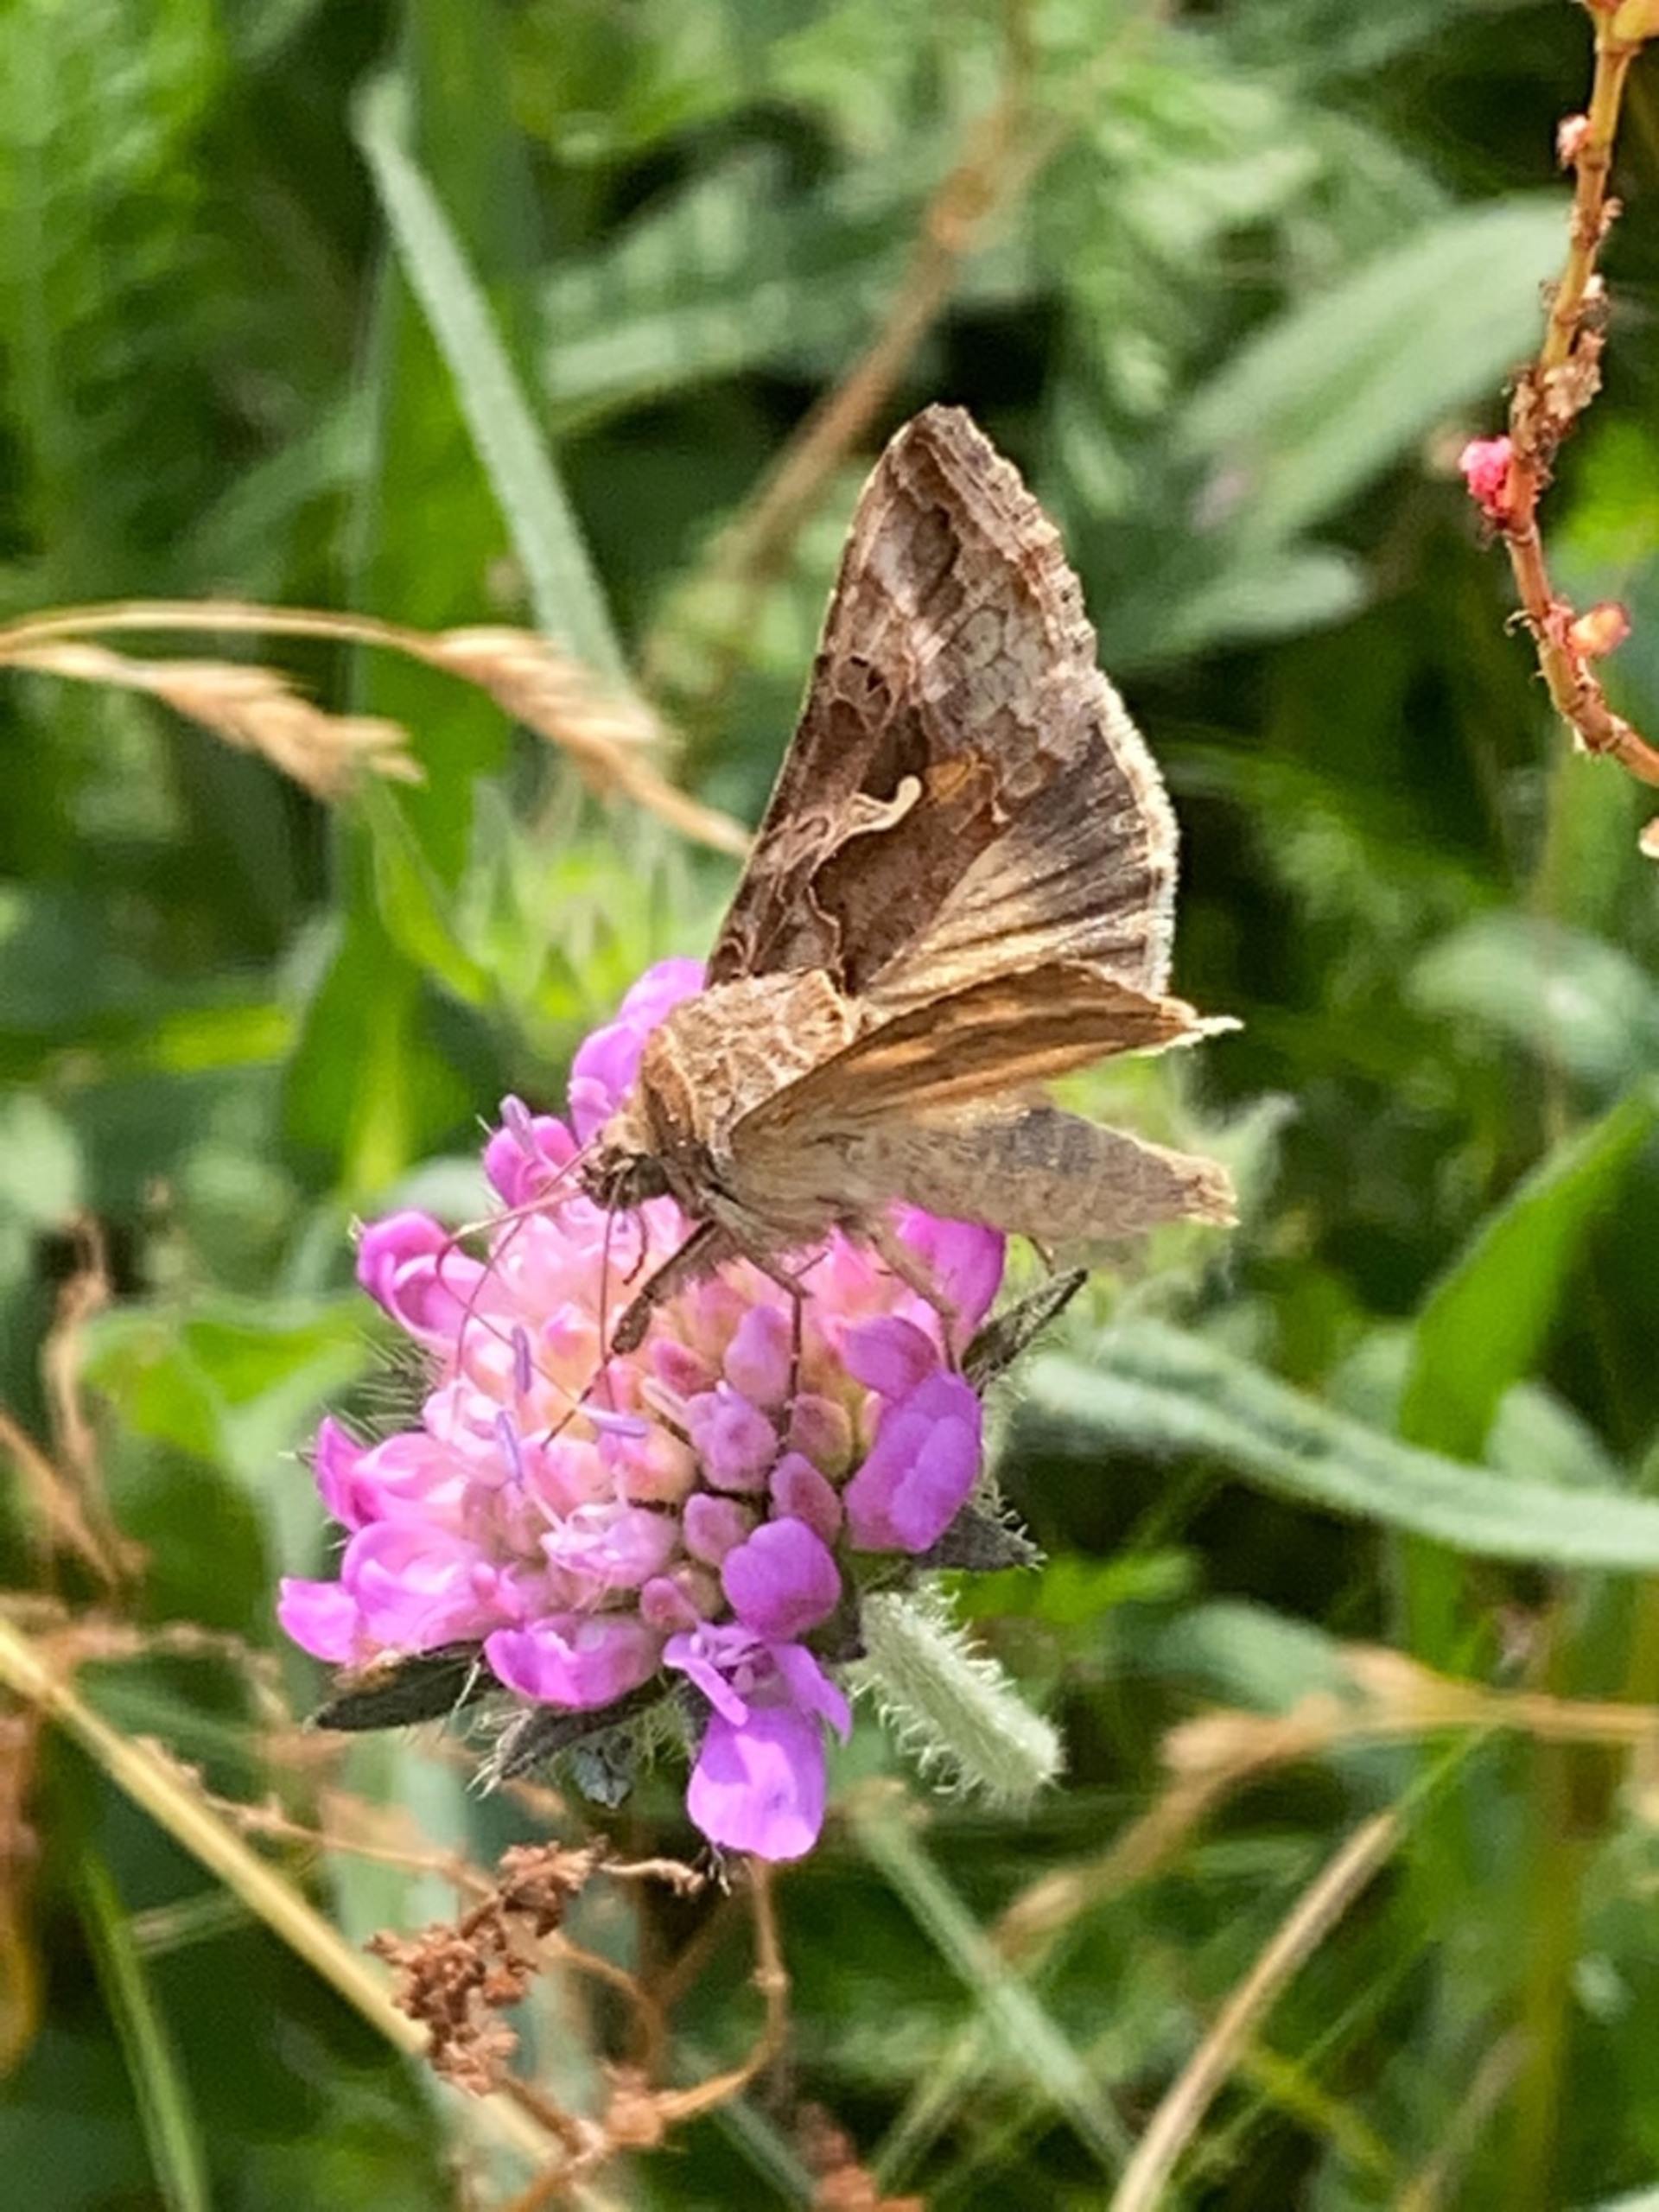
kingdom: Animalia
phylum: Arthropoda
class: Insecta
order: Lepidoptera
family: Noctuidae
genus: Autographa
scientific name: Autographa gamma
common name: Gammaugle
